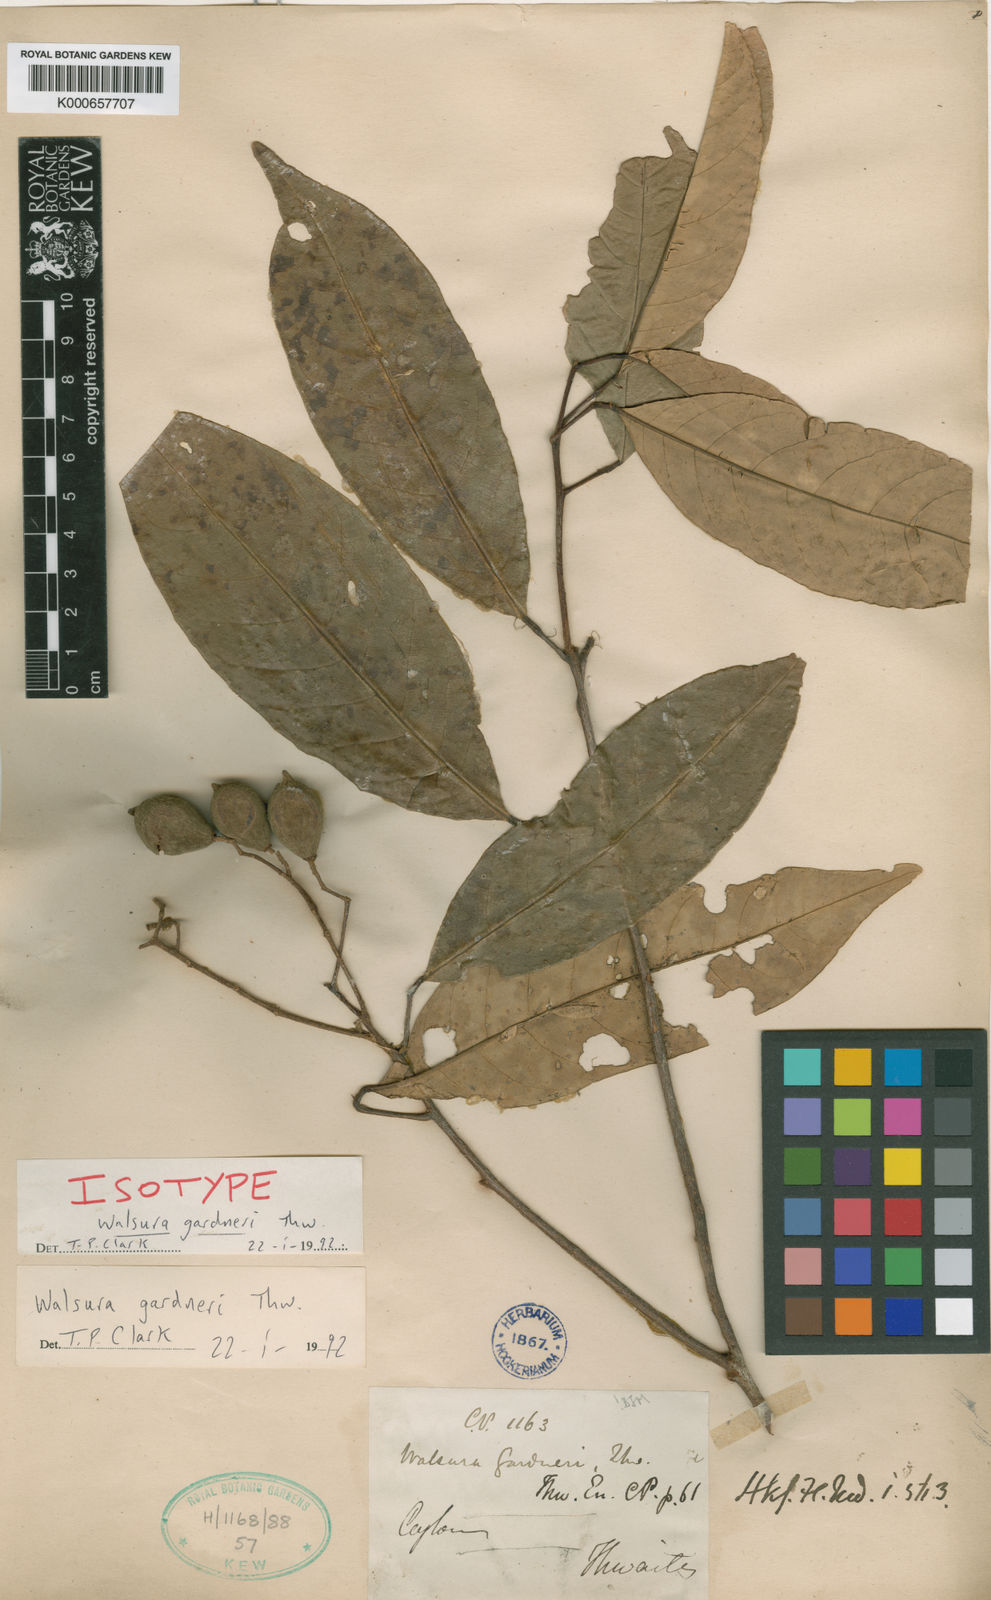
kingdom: Plantae
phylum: Tracheophyta
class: Magnoliopsida
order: Sapindales
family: Meliaceae
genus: Walsura
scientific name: Walsura gardneri
